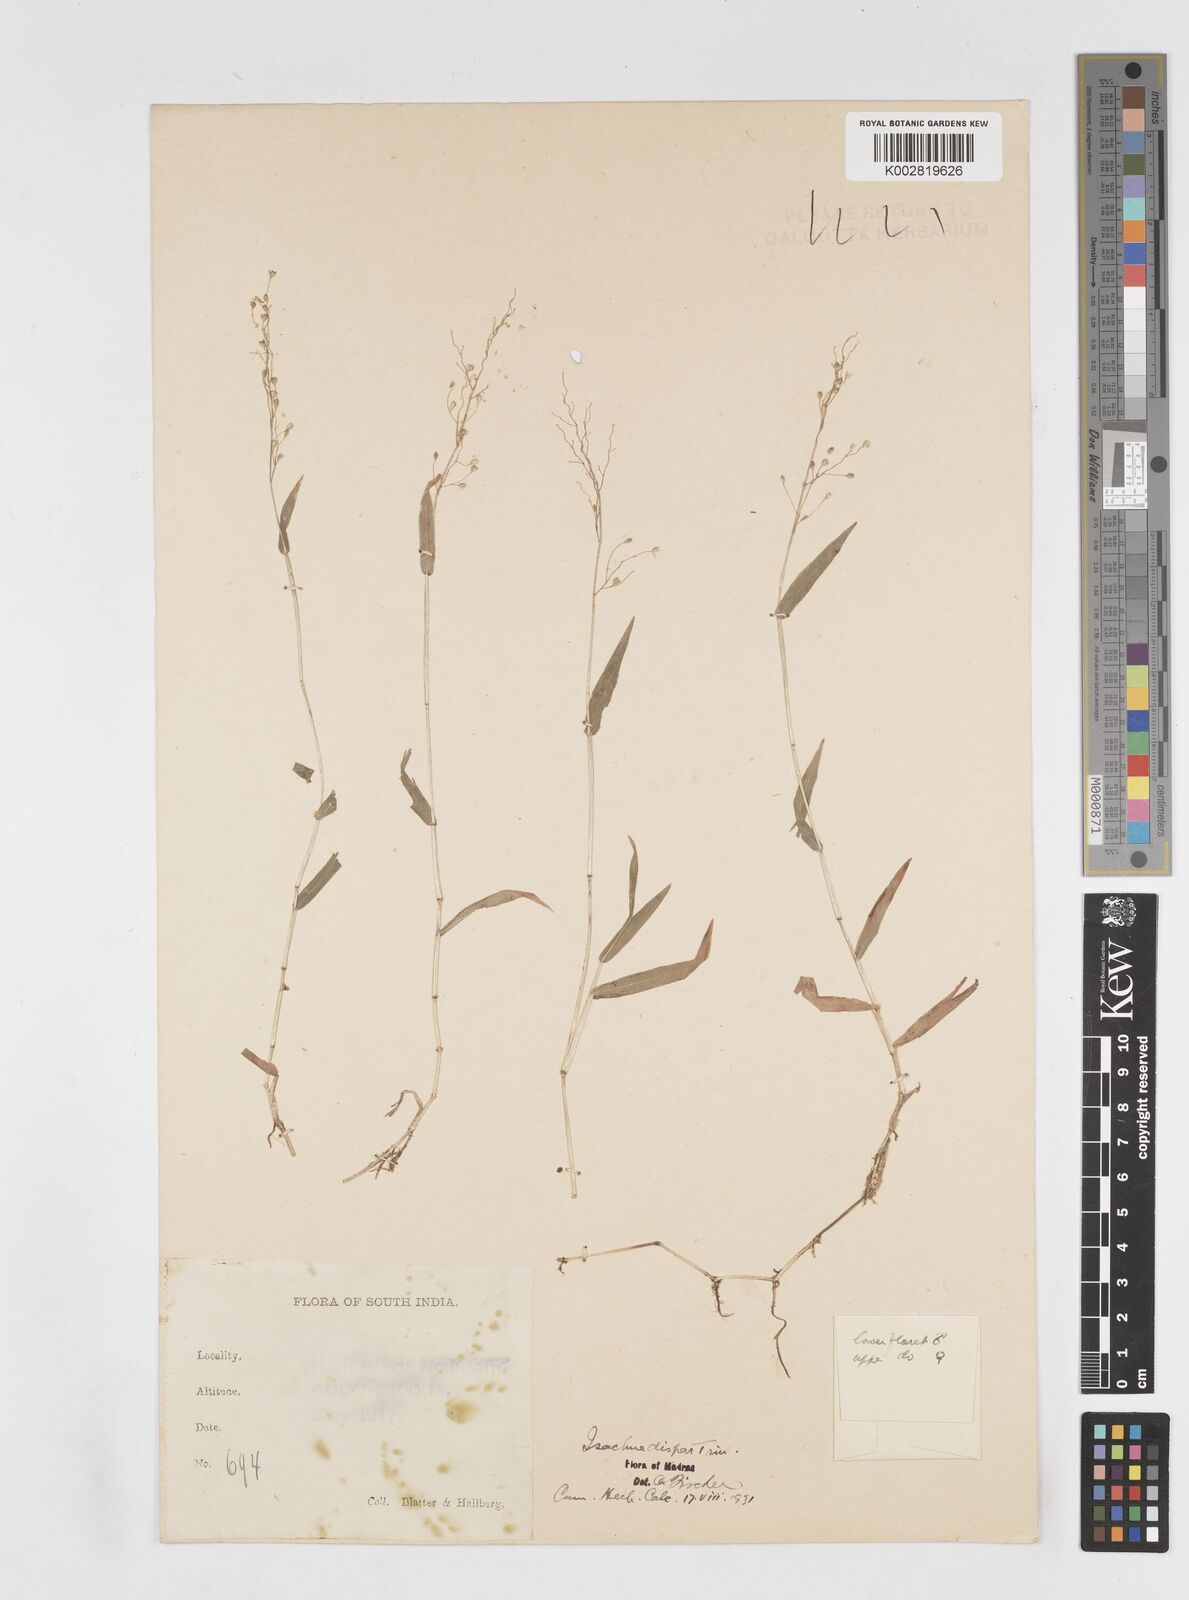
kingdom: Plantae
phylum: Tracheophyta
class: Liliopsida
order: Poales
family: Poaceae
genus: Isachne
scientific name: Isachne globosa
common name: Swamp millet
